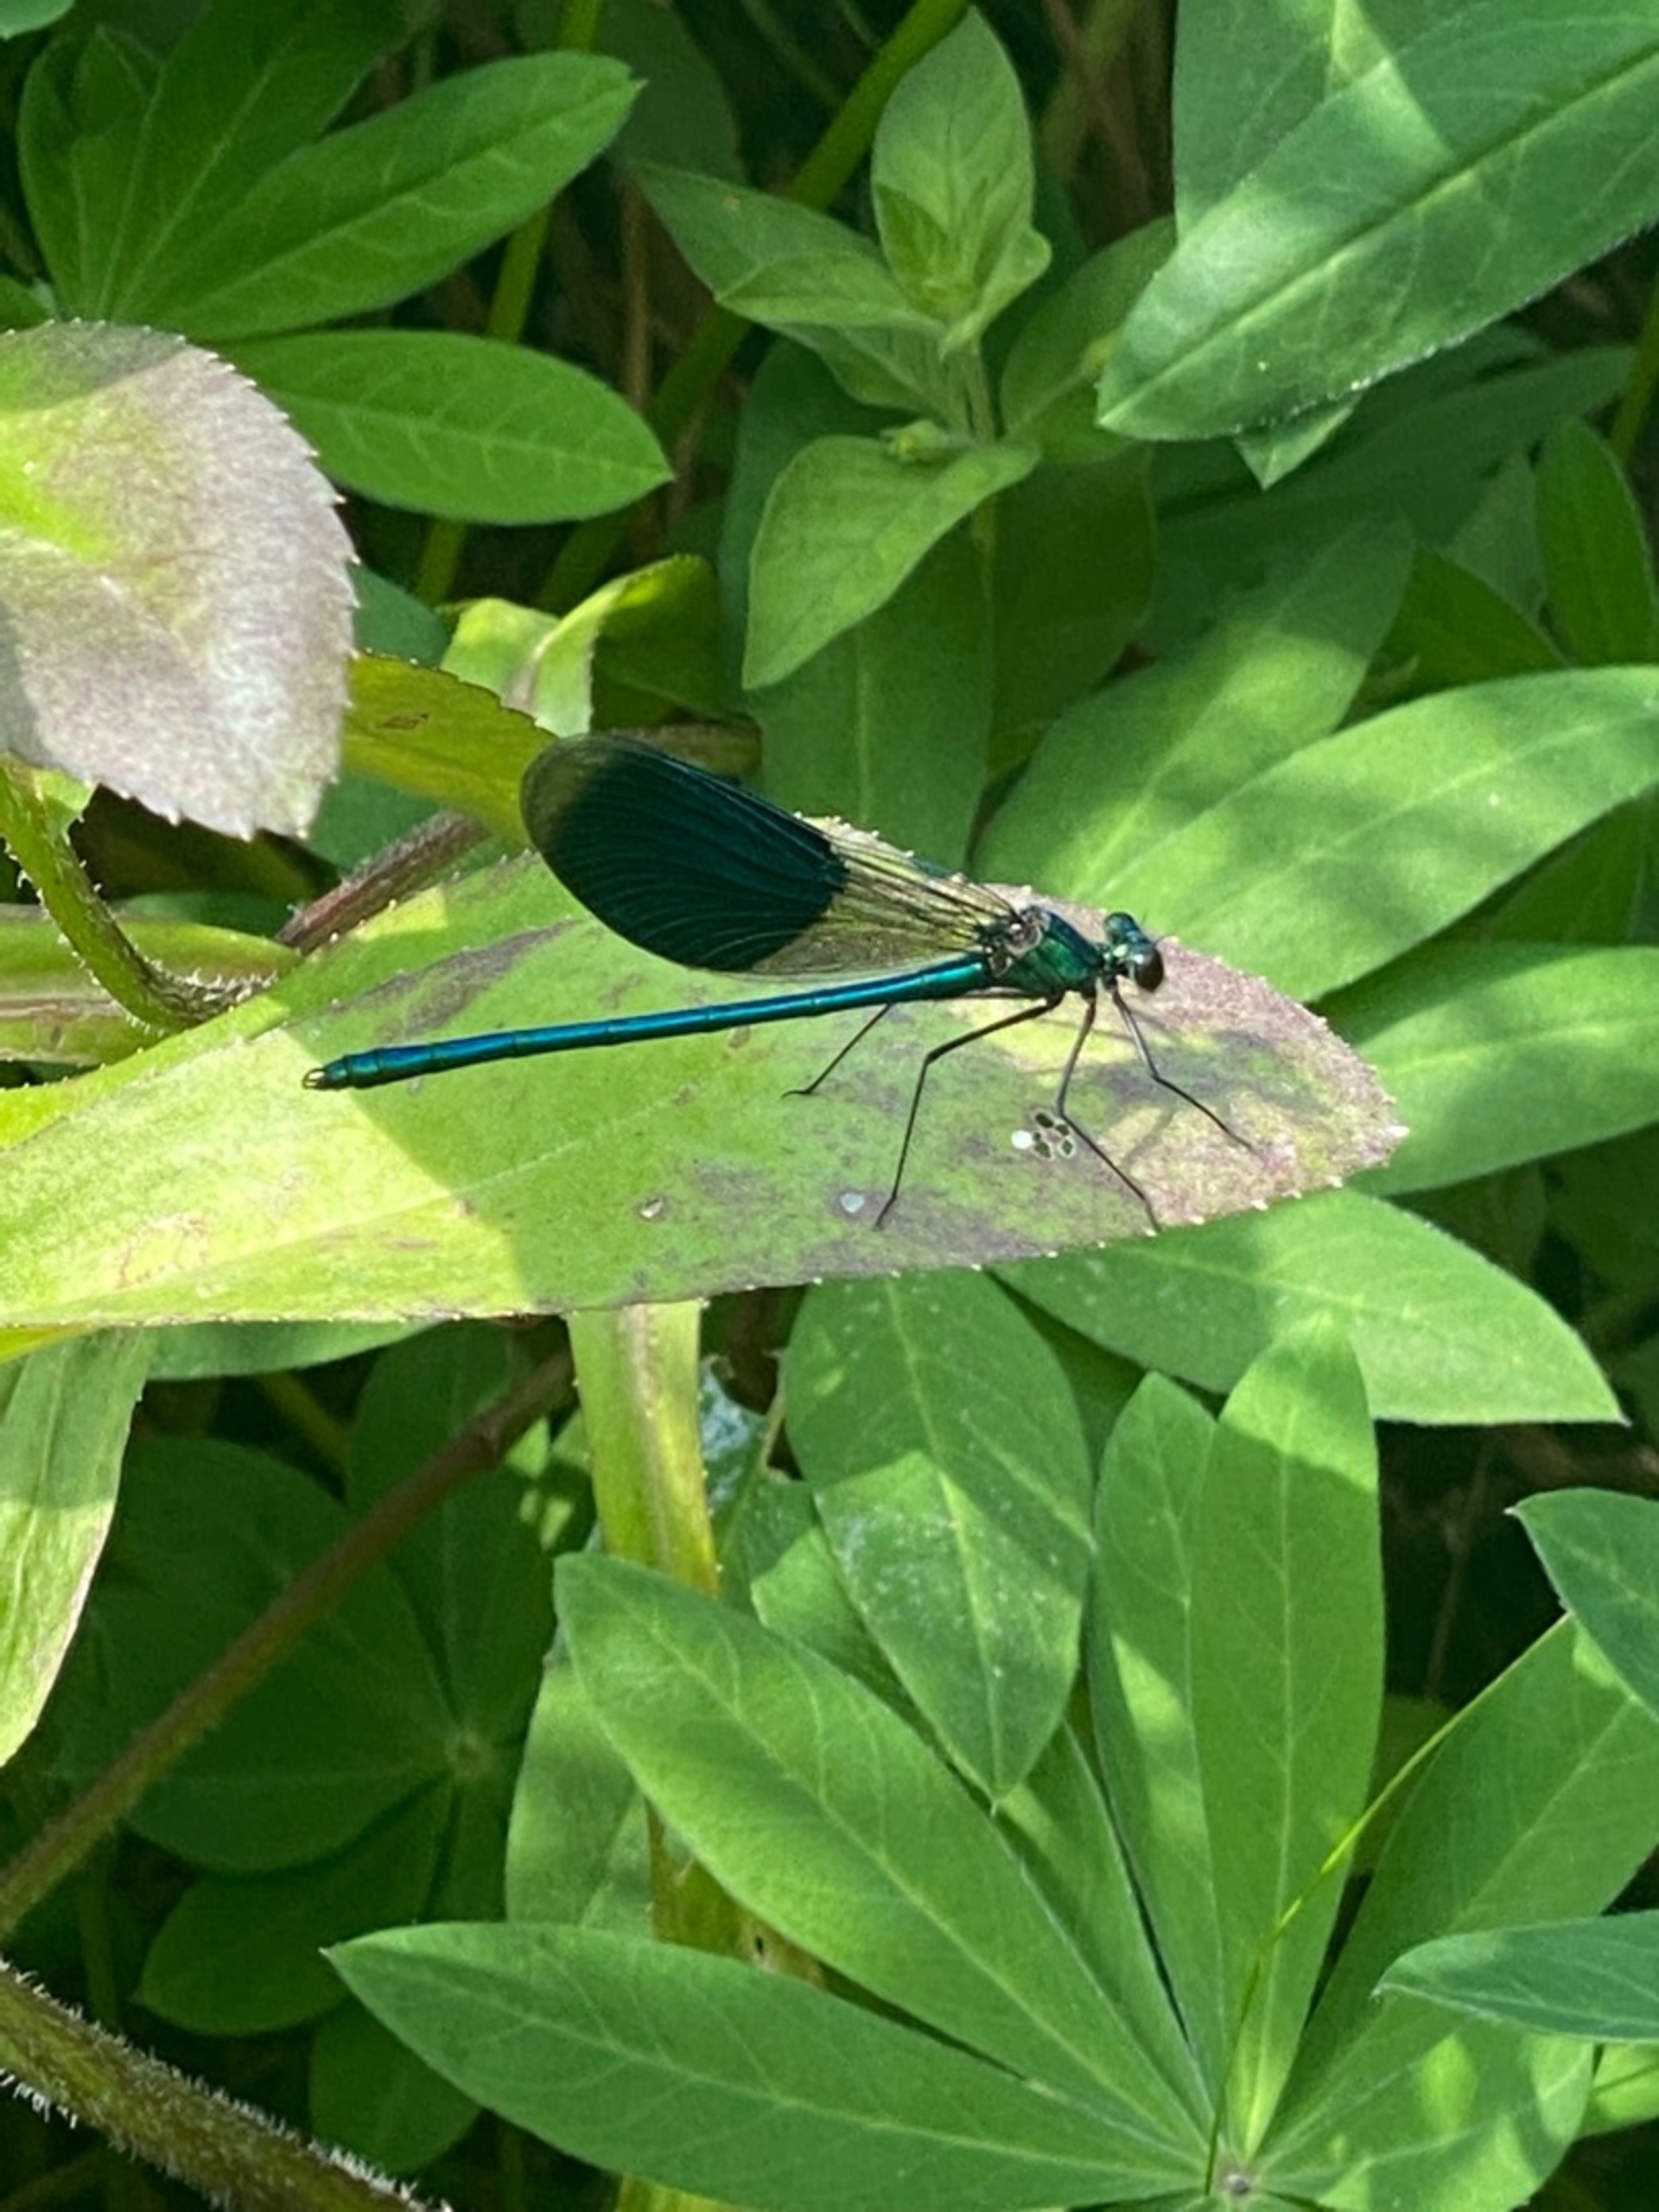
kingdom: Animalia
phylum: Arthropoda
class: Insecta
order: Odonata
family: Calopterygidae
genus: Calopteryx
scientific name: Calopteryx splendens
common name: Blåbåndet pragtvandnymfe
